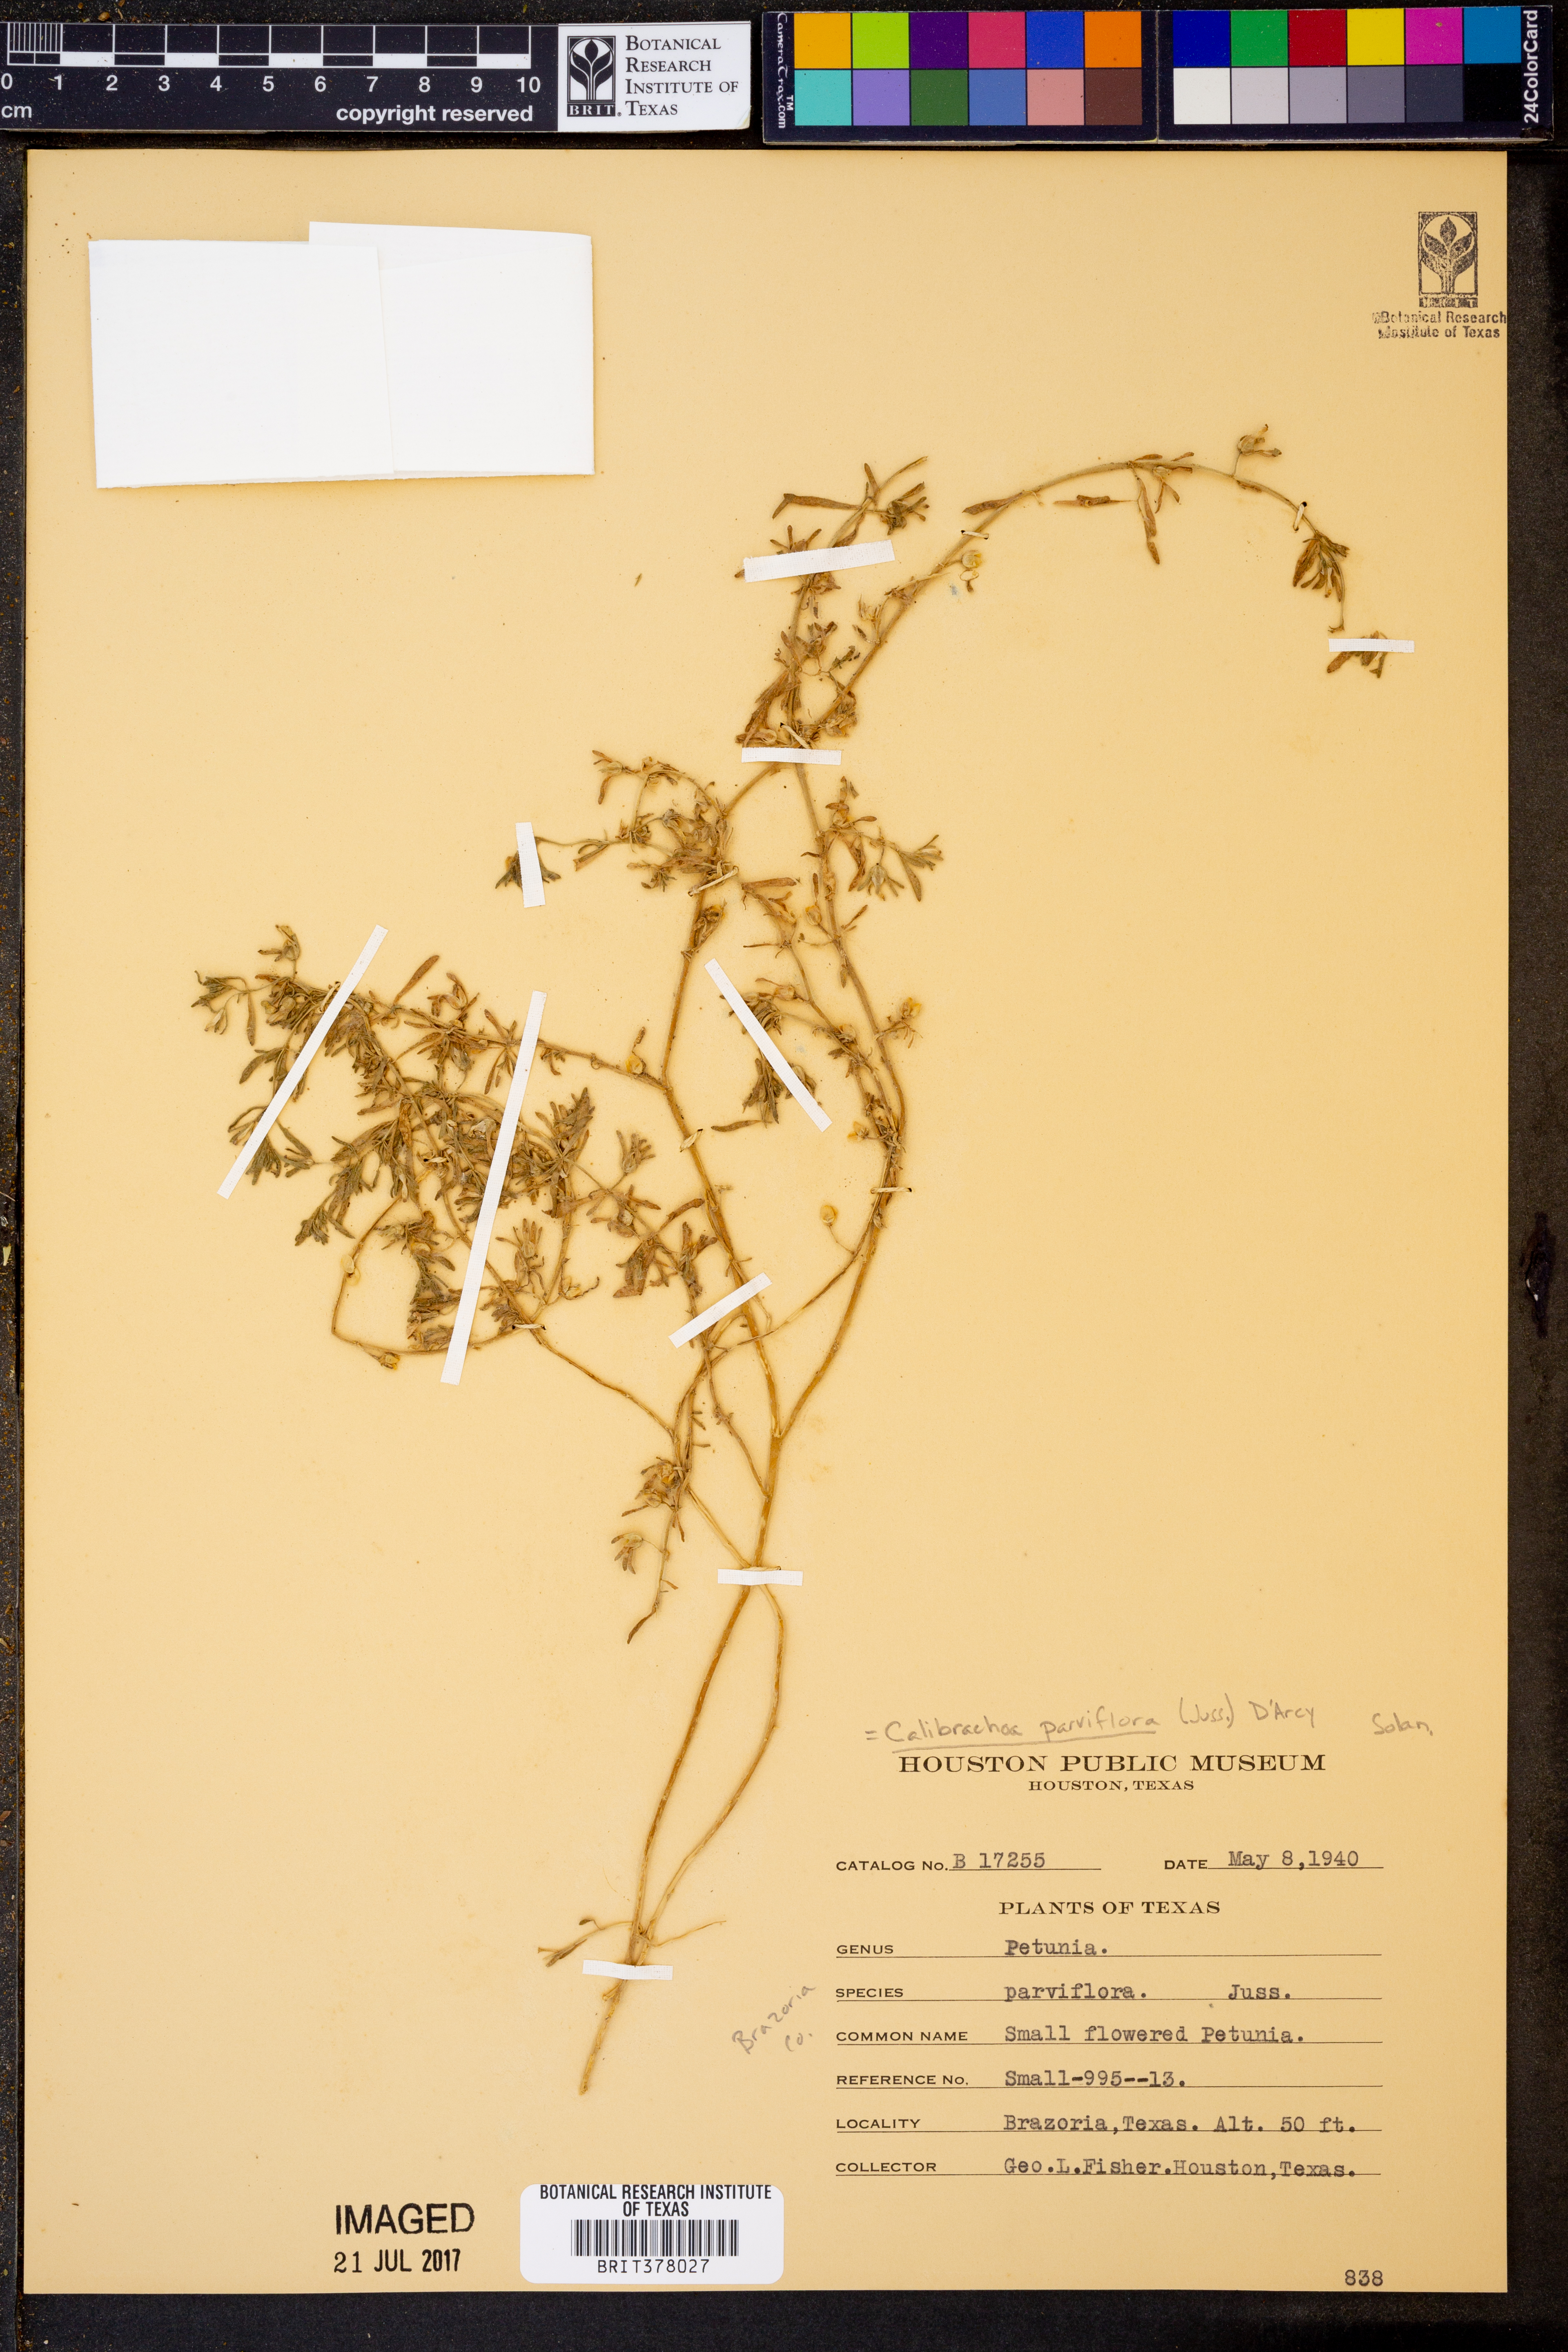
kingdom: Plantae
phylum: Tracheophyta
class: Magnoliopsida
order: Solanales
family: Solanaceae
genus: Calibrachoa
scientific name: Calibrachoa parviflora
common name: Seaside petunia
